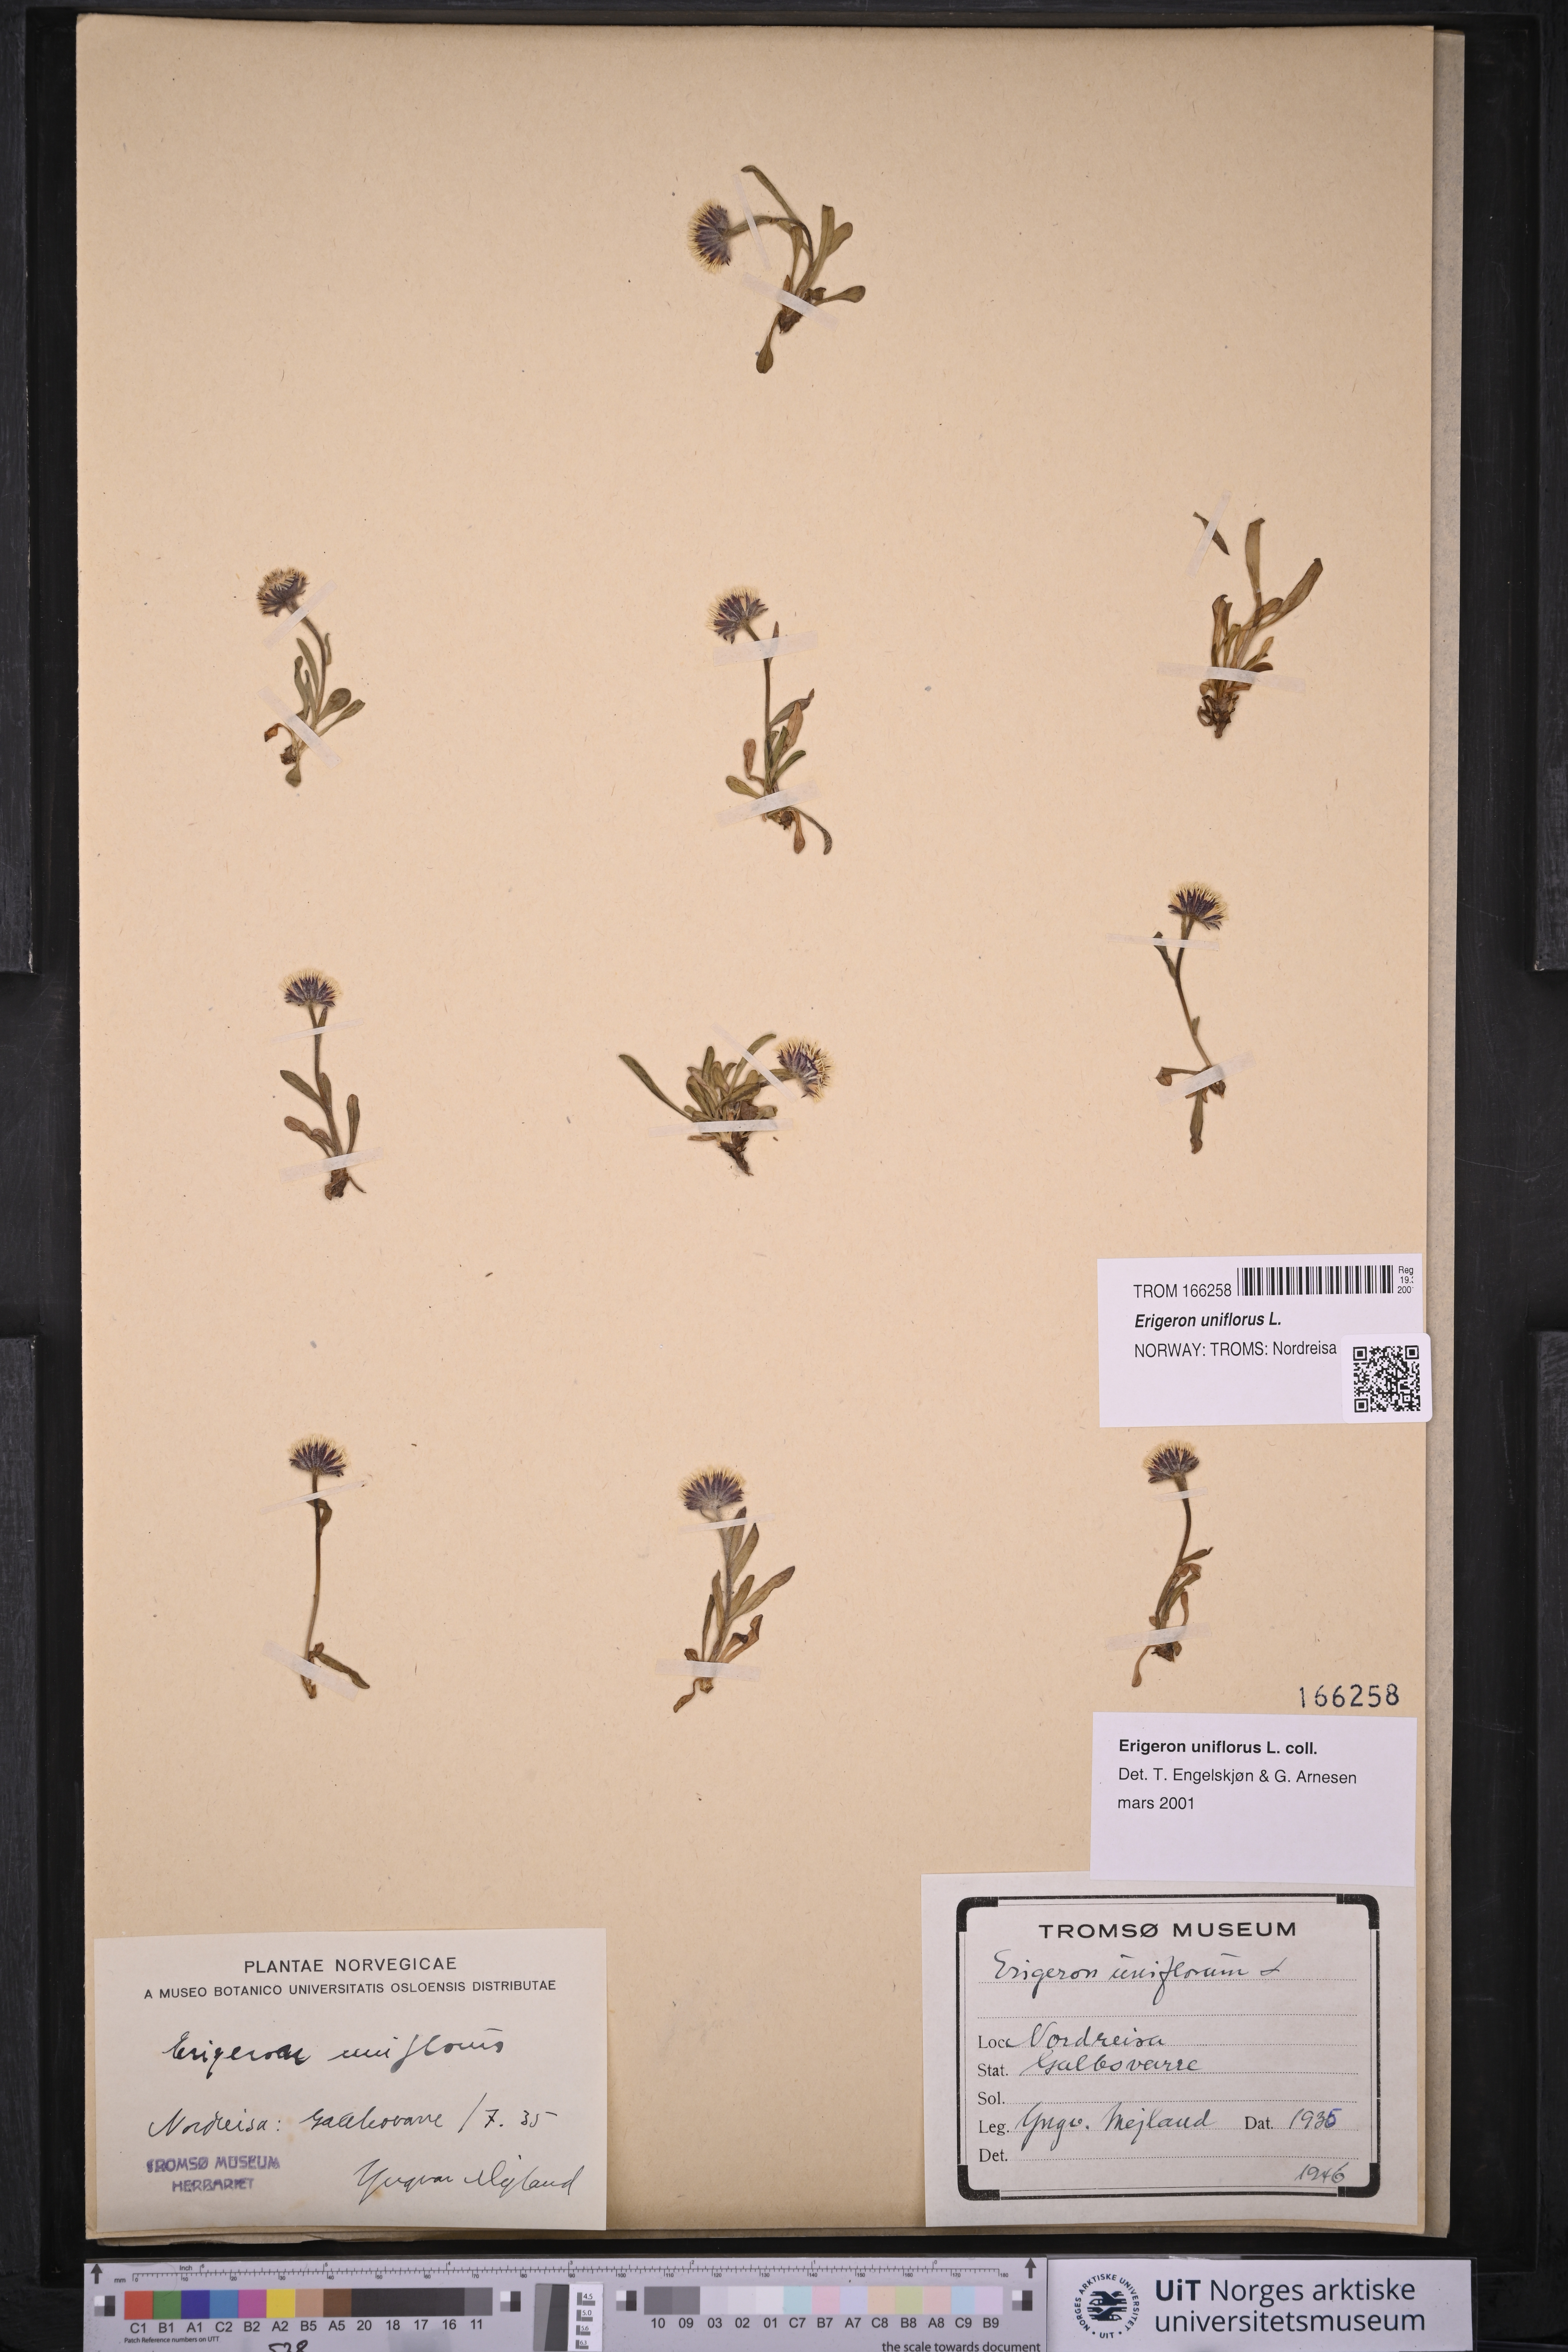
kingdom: Plantae
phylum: Tracheophyta
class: Magnoliopsida
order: Asterales
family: Asteraceae
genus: Erigeron
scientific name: Erigeron uniflorus
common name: Northern daisy
